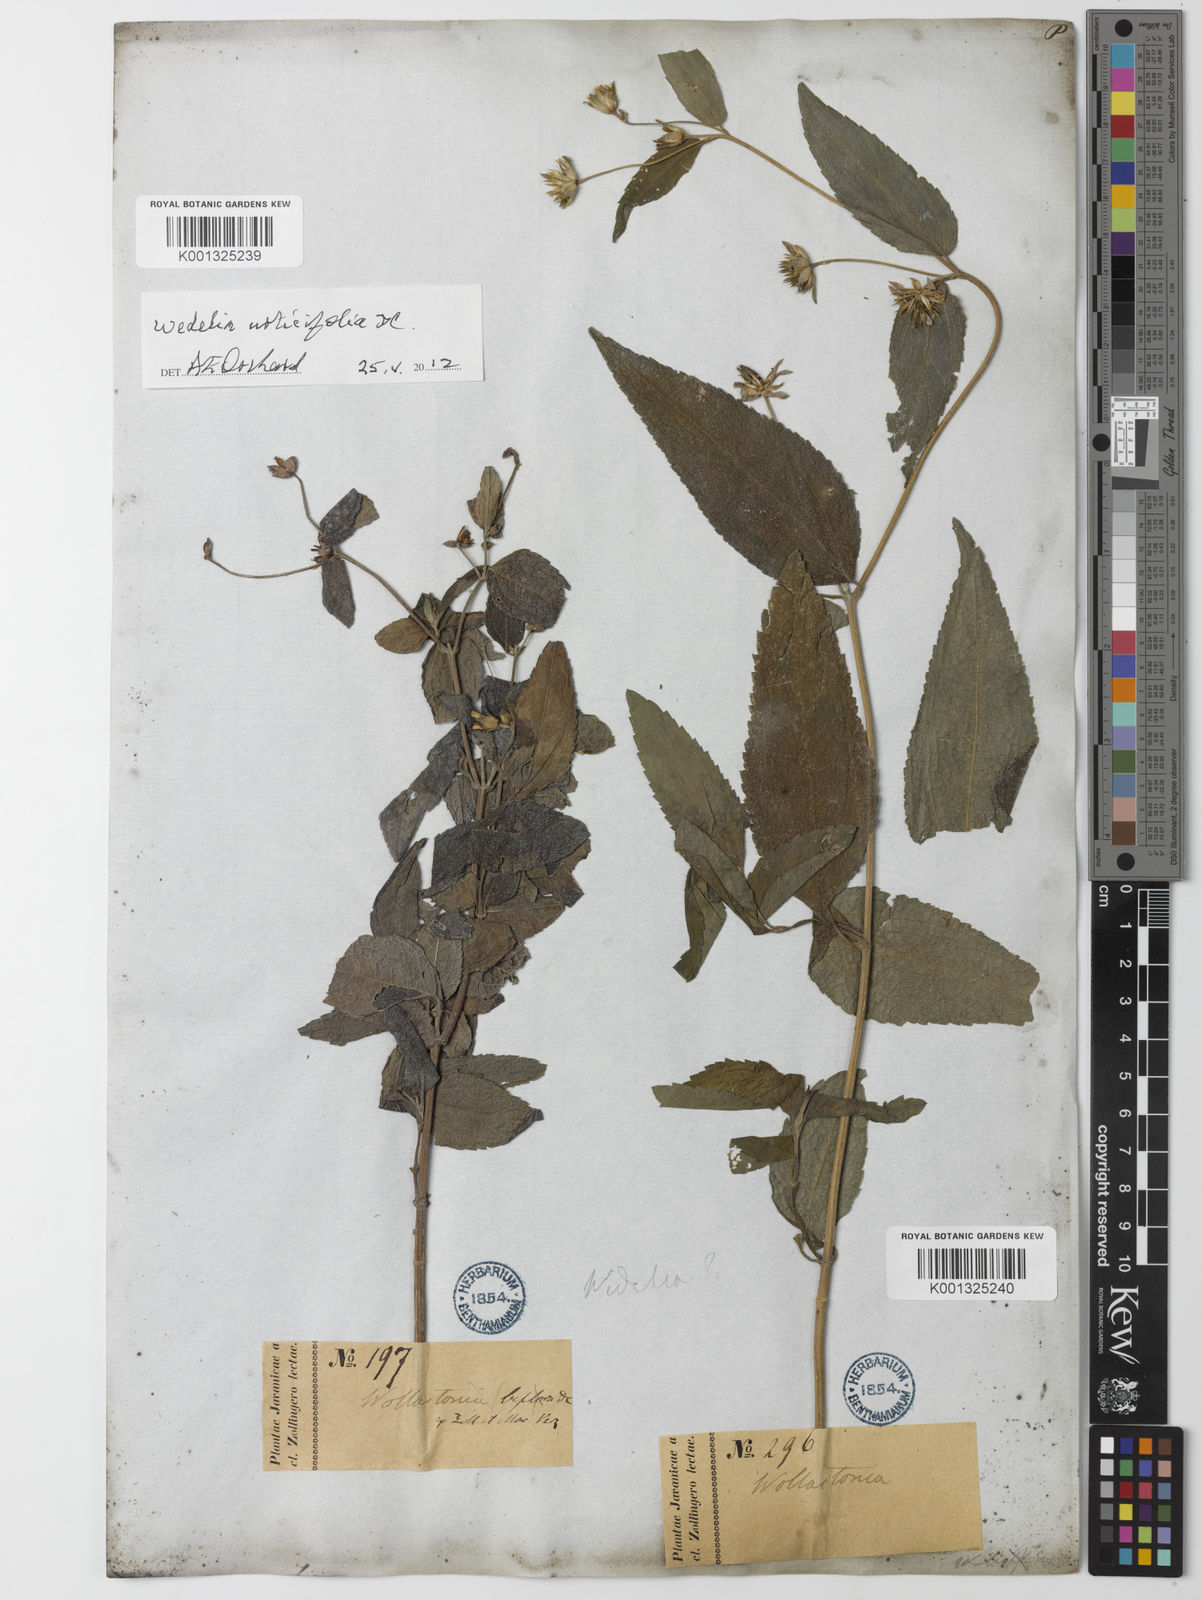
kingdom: Plantae
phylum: Tracheophyta
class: Magnoliopsida
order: Asterales
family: Asteraceae
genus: Lipoblepharis
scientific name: Lipoblepharis urticifolia
